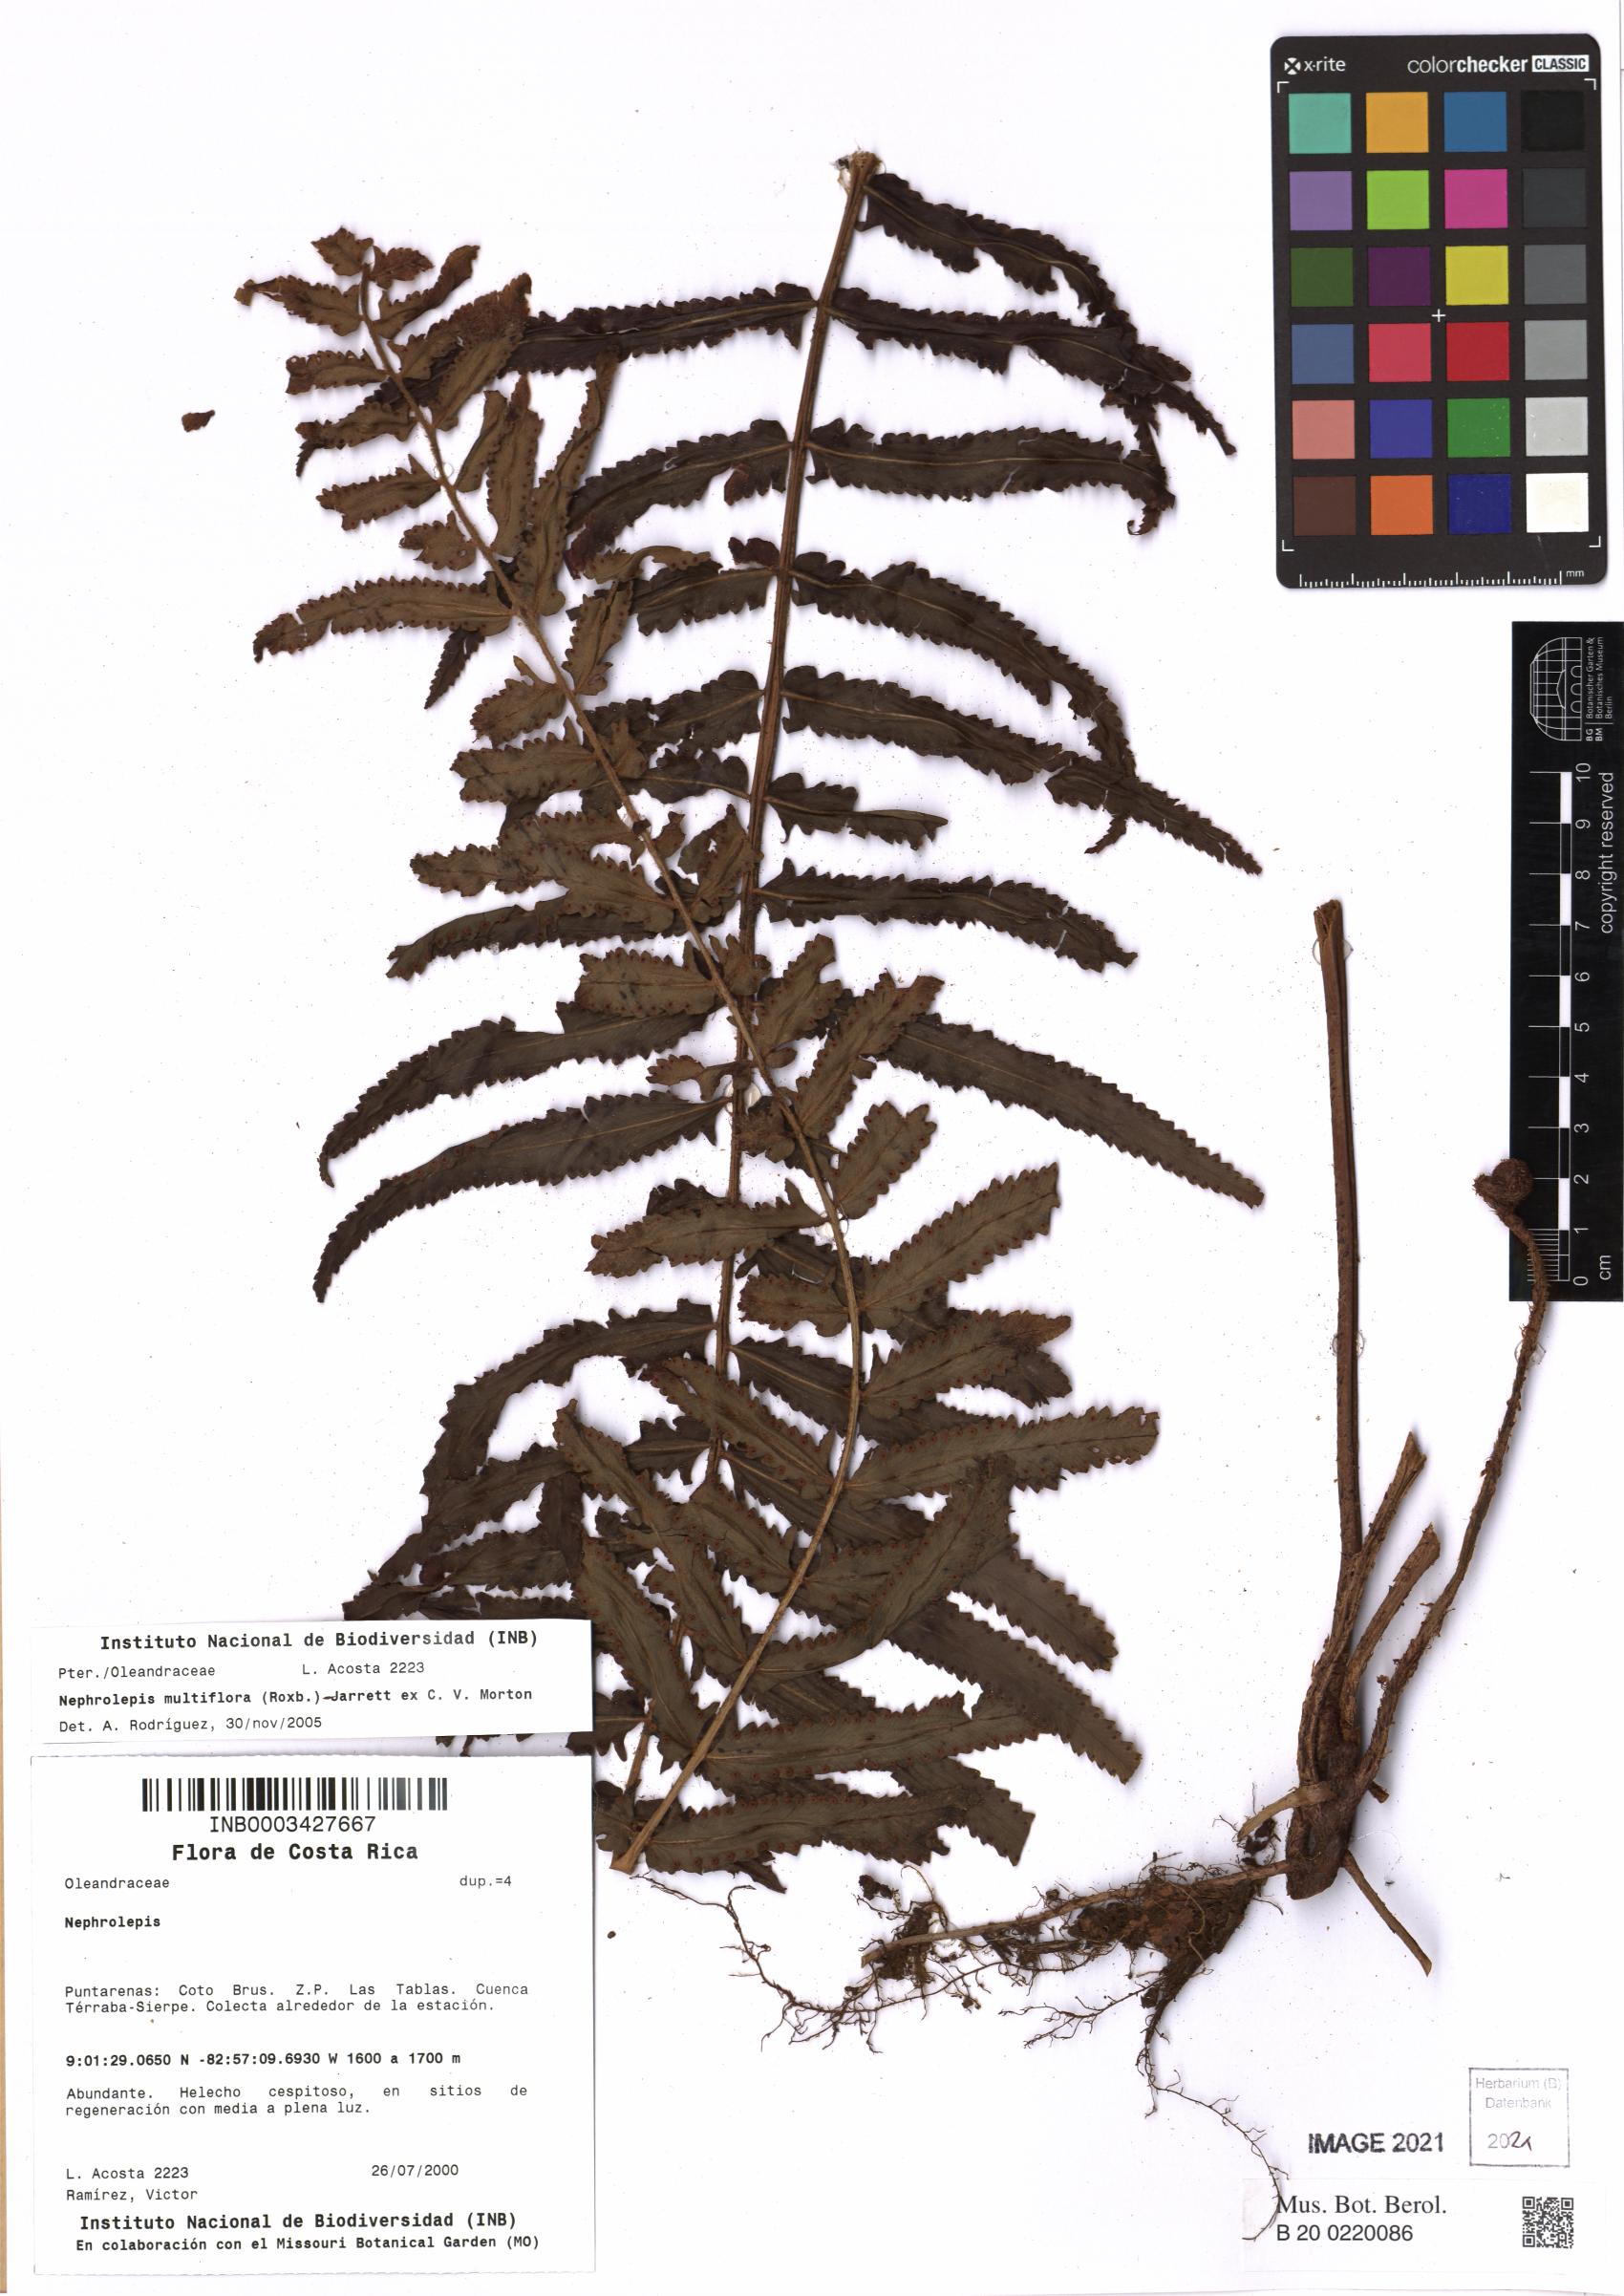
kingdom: Plantae
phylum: Tracheophyta
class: Polypodiopsida
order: Polypodiales
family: Nephrolepidaceae
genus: Nephrolepis
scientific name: Nephrolepis brownii
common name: Asian swordfern
